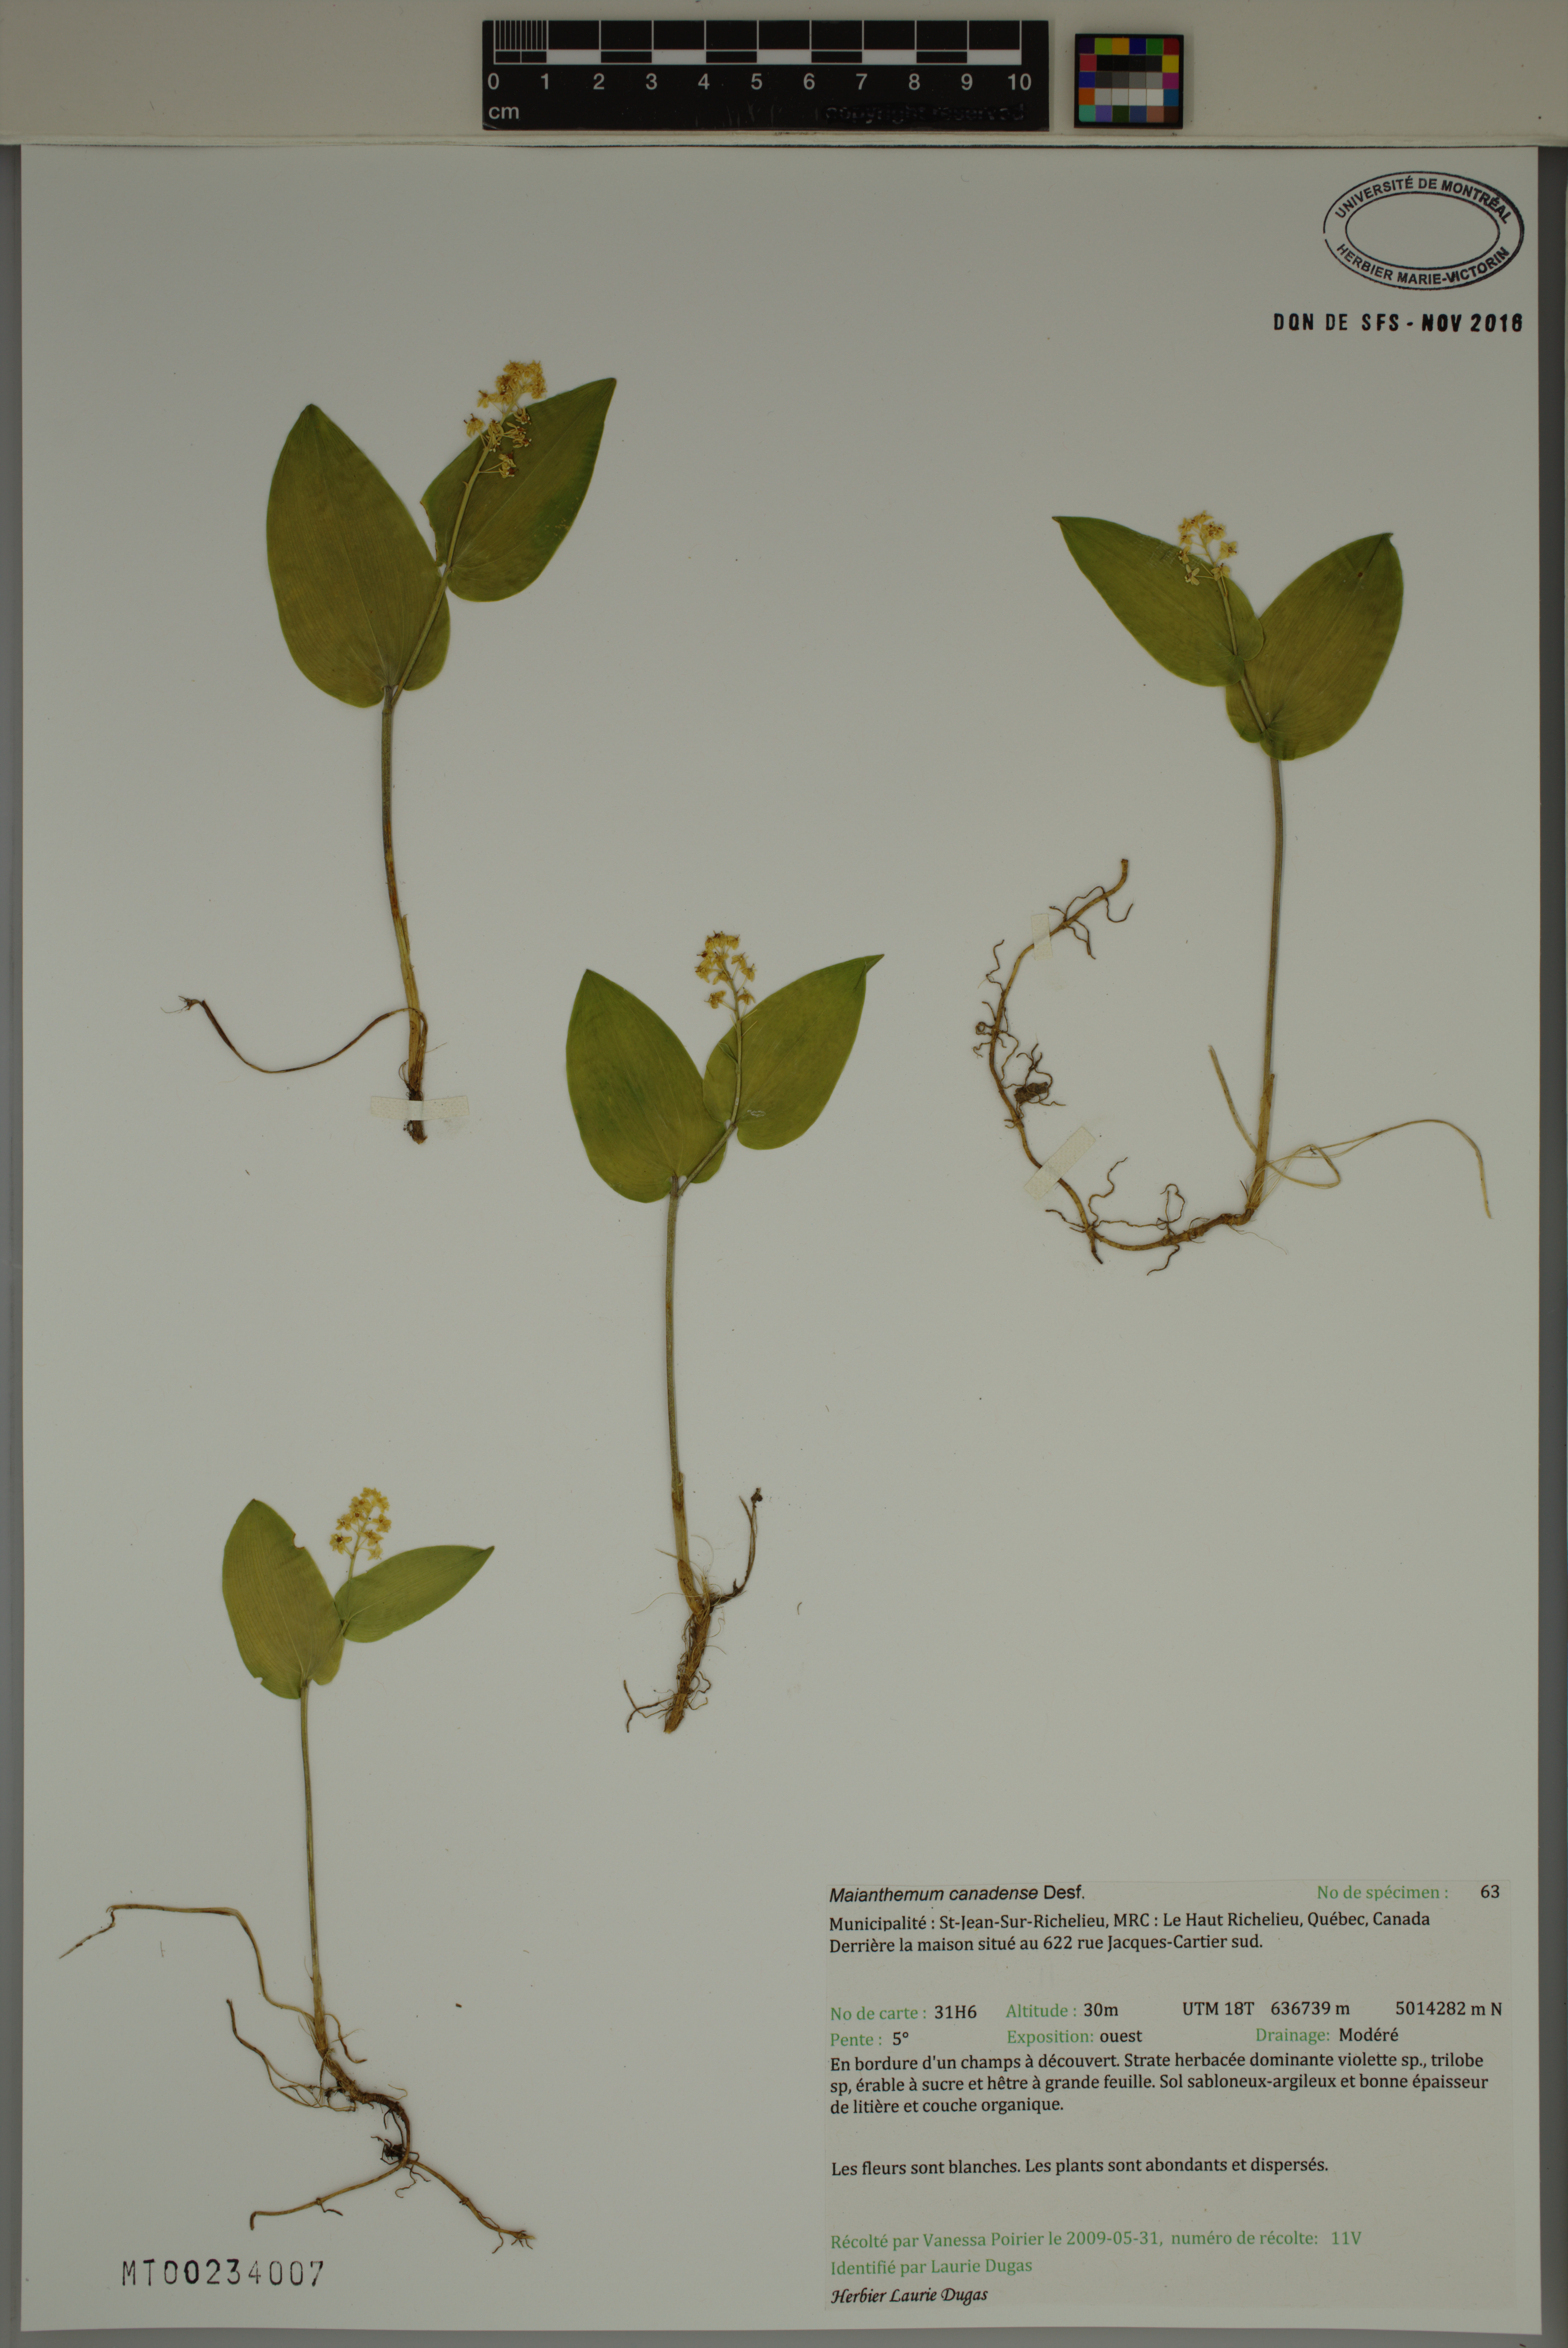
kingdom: Plantae
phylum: Tracheophyta
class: Liliopsida
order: Asparagales
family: Asparagaceae
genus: Maianthemum
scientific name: Maianthemum canadense
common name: False lily-of-the-valley
